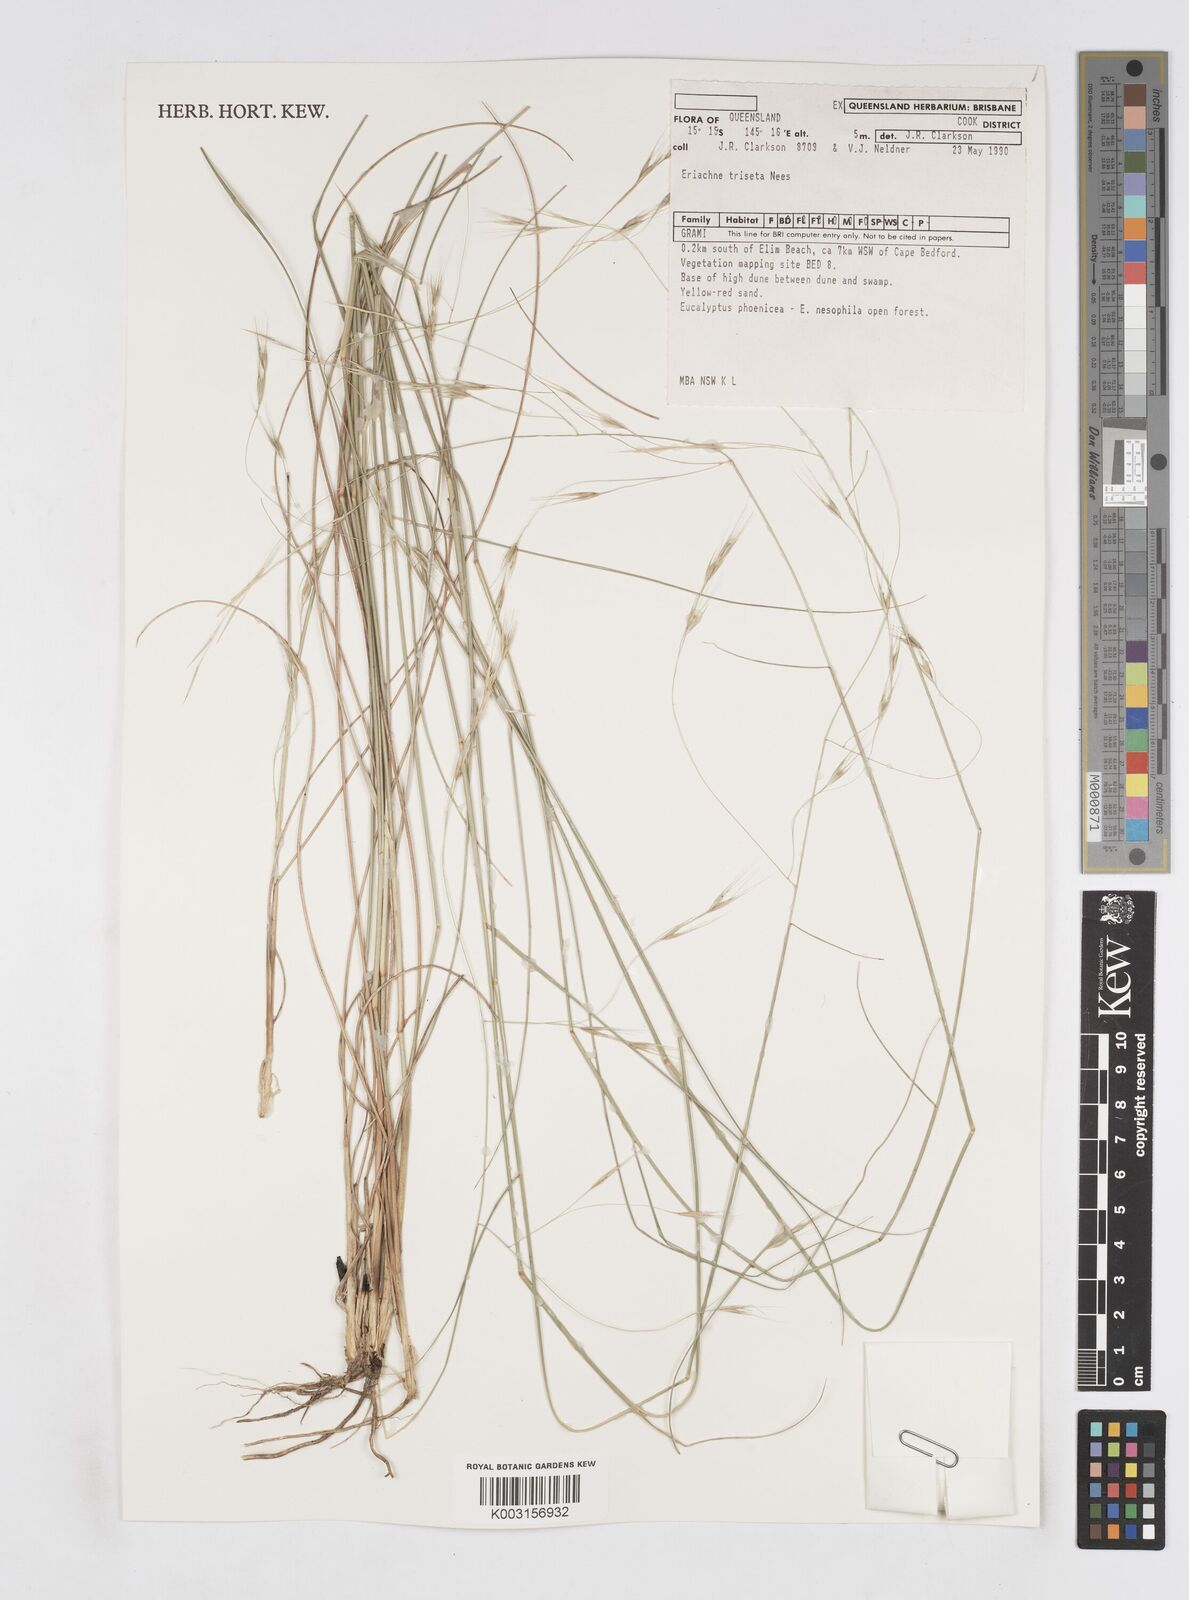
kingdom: Plantae
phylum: Tracheophyta
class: Liliopsida
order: Poales
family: Poaceae
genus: Eriachne
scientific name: Eriachne triseta
